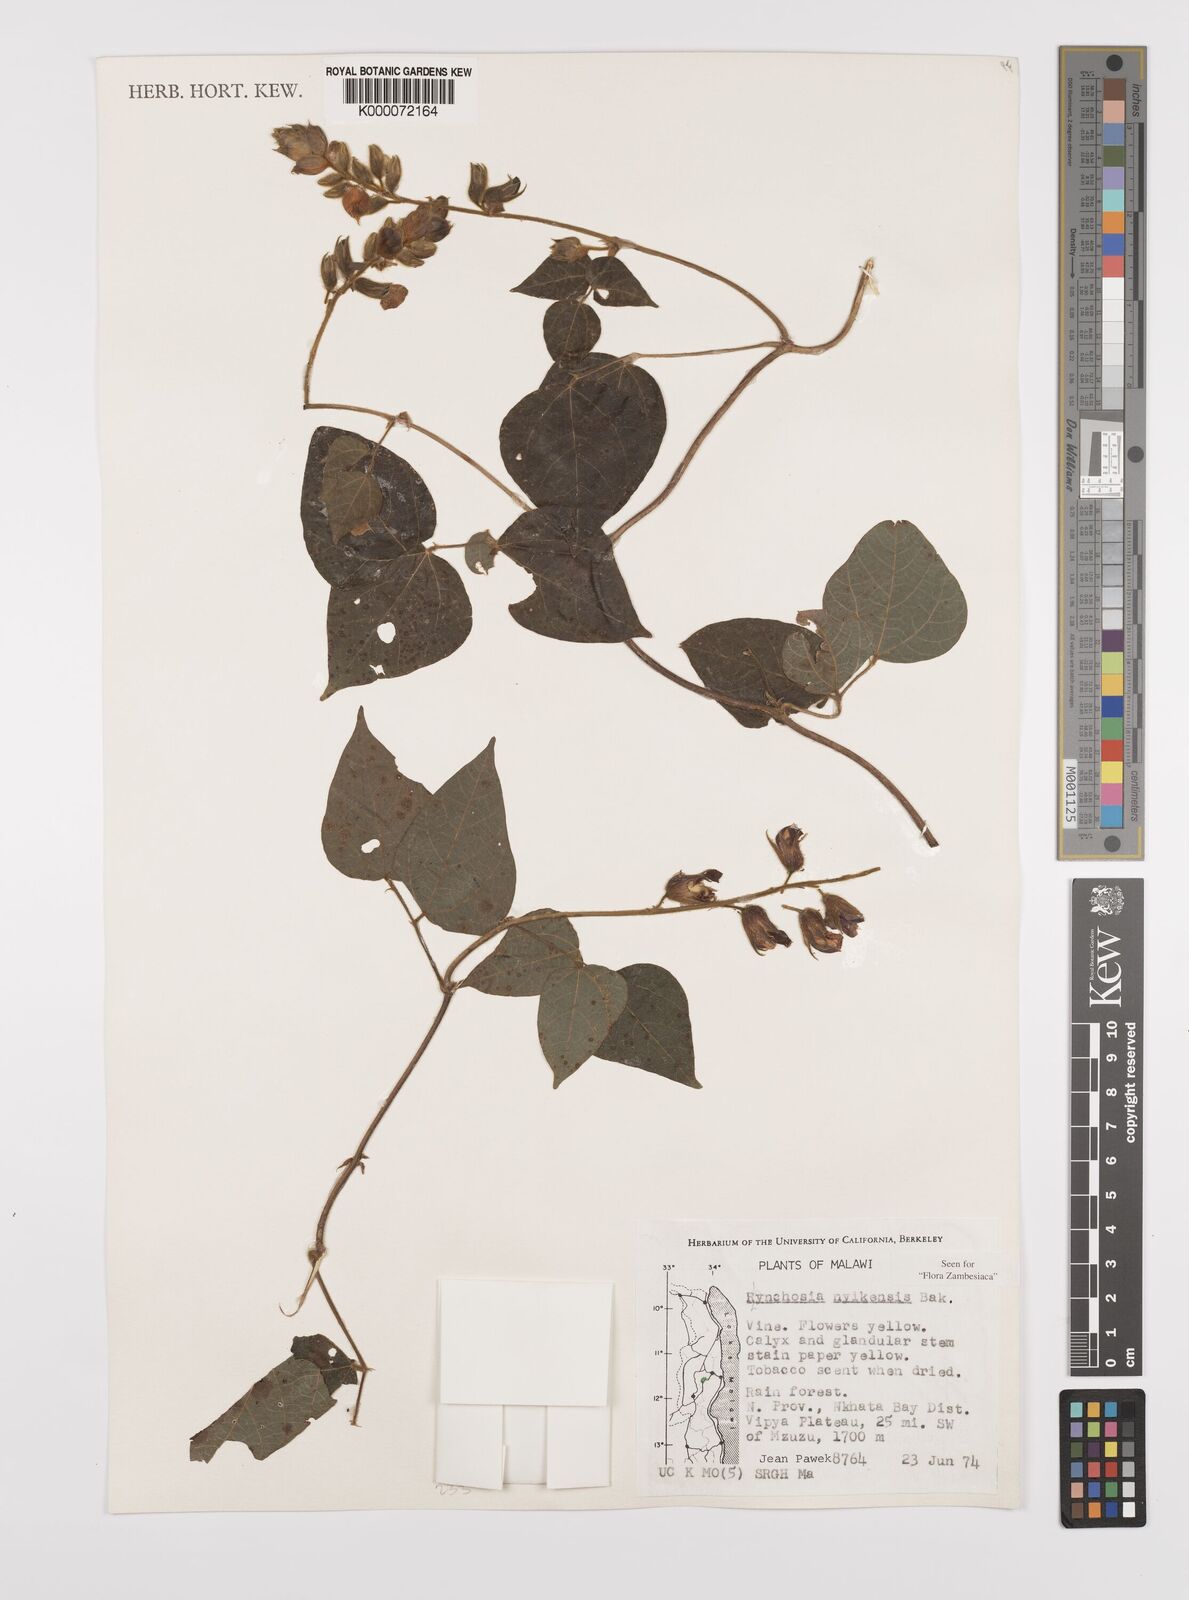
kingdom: Plantae
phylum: Tracheophyta
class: Magnoliopsida
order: Fabales
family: Fabaceae
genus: Rhynchosia
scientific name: Rhynchosia nyikensis
